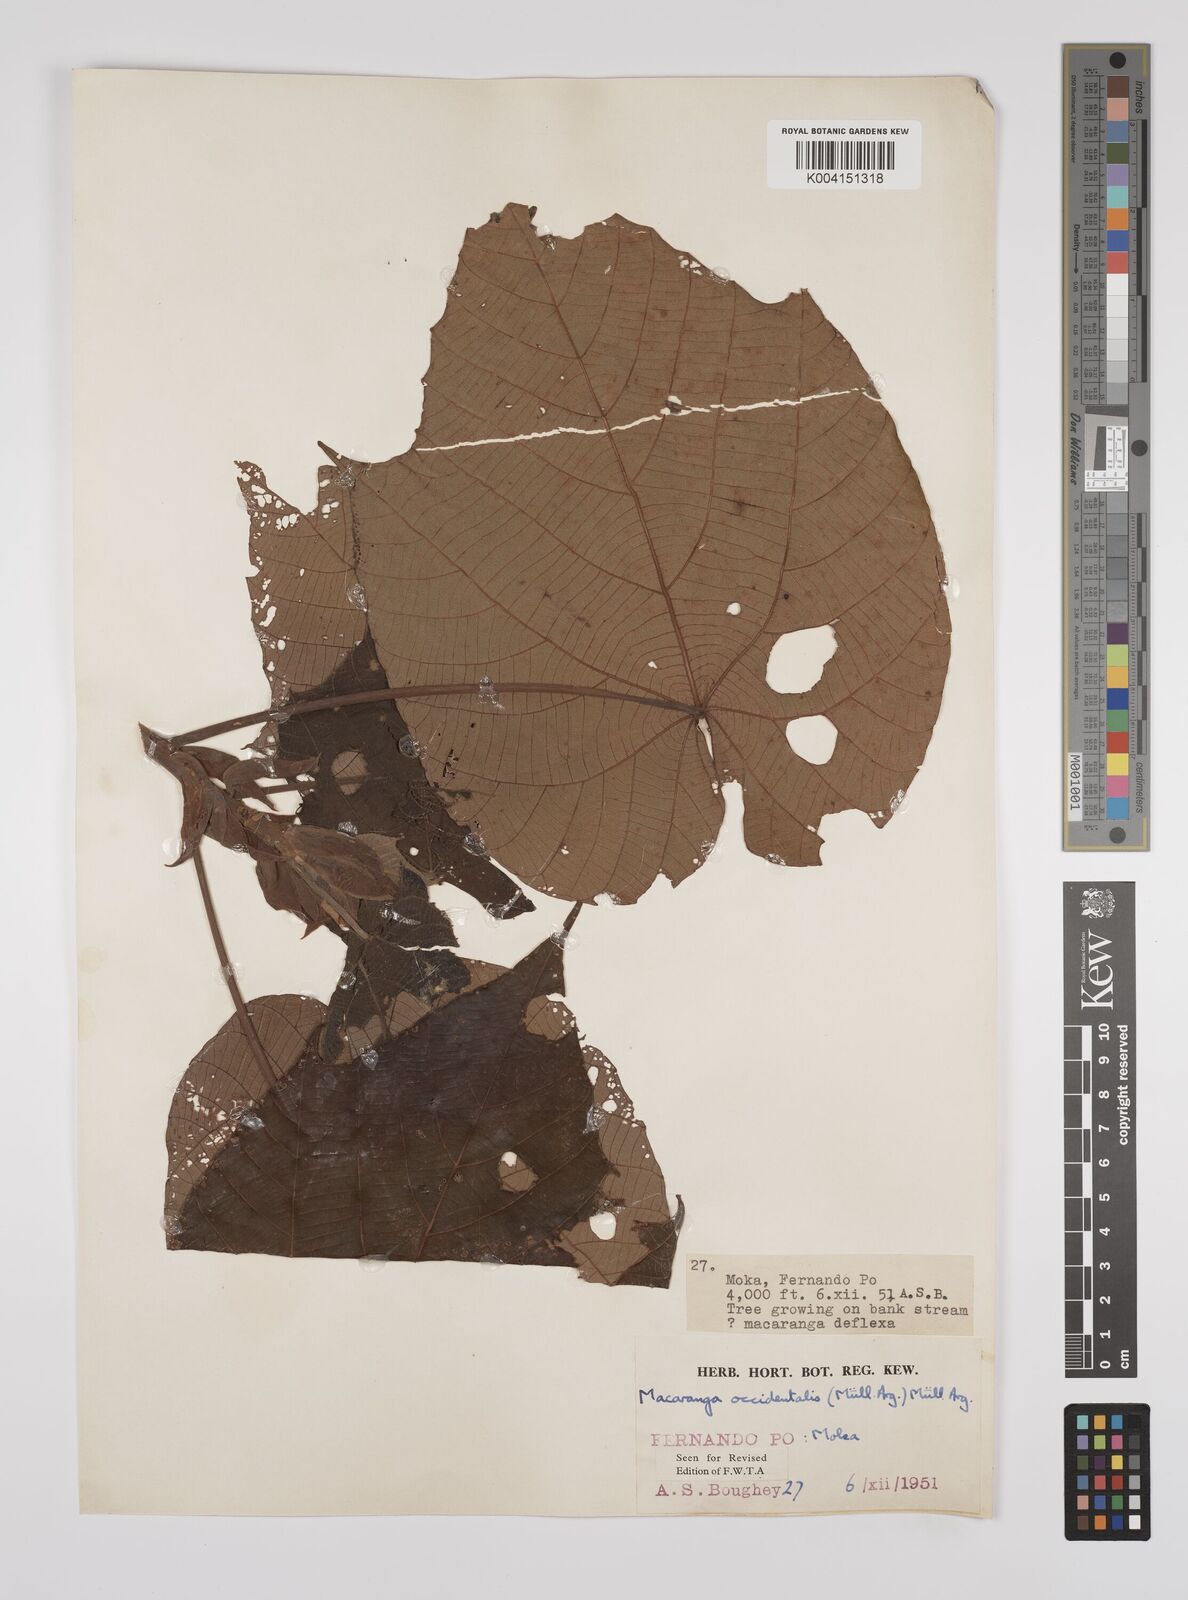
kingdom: Plantae
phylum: Tracheophyta
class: Magnoliopsida
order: Malpighiales
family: Euphorbiaceae
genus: Macaranga
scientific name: Macaranga occidentalis
